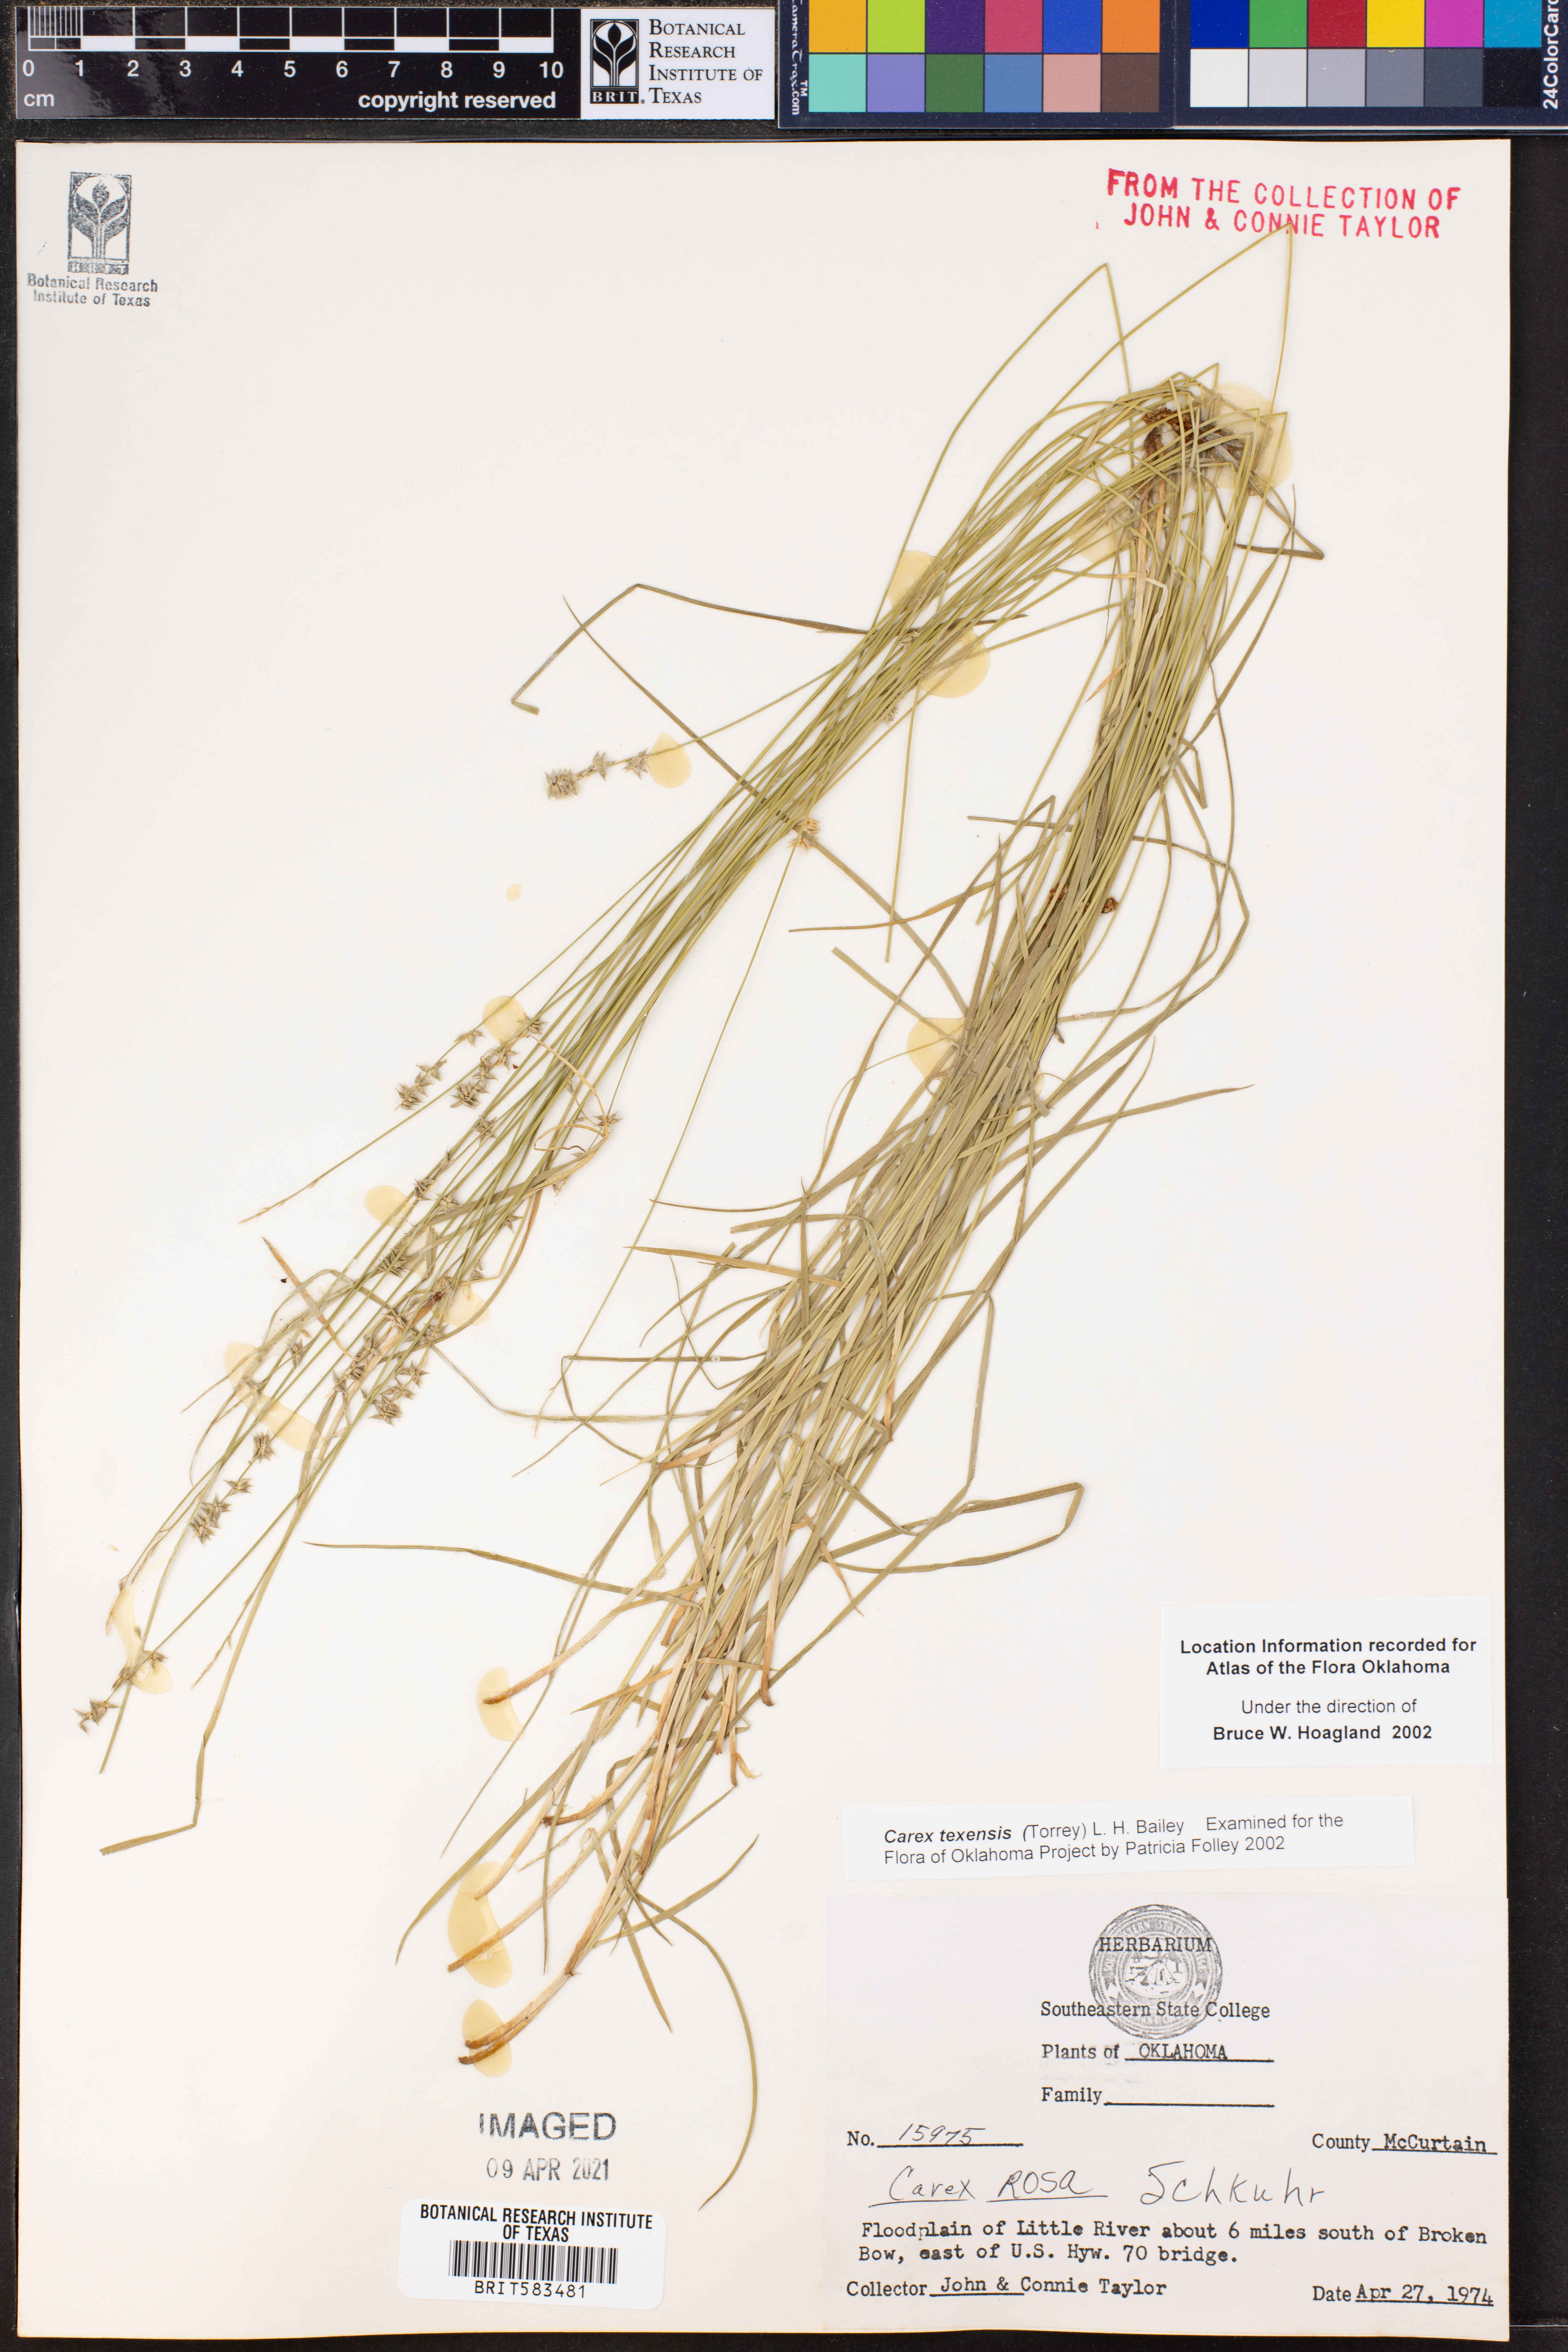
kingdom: Plantae
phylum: Tracheophyta
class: Liliopsida
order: Poales
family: Cyperaceae
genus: Carex
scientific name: Carex texensis
